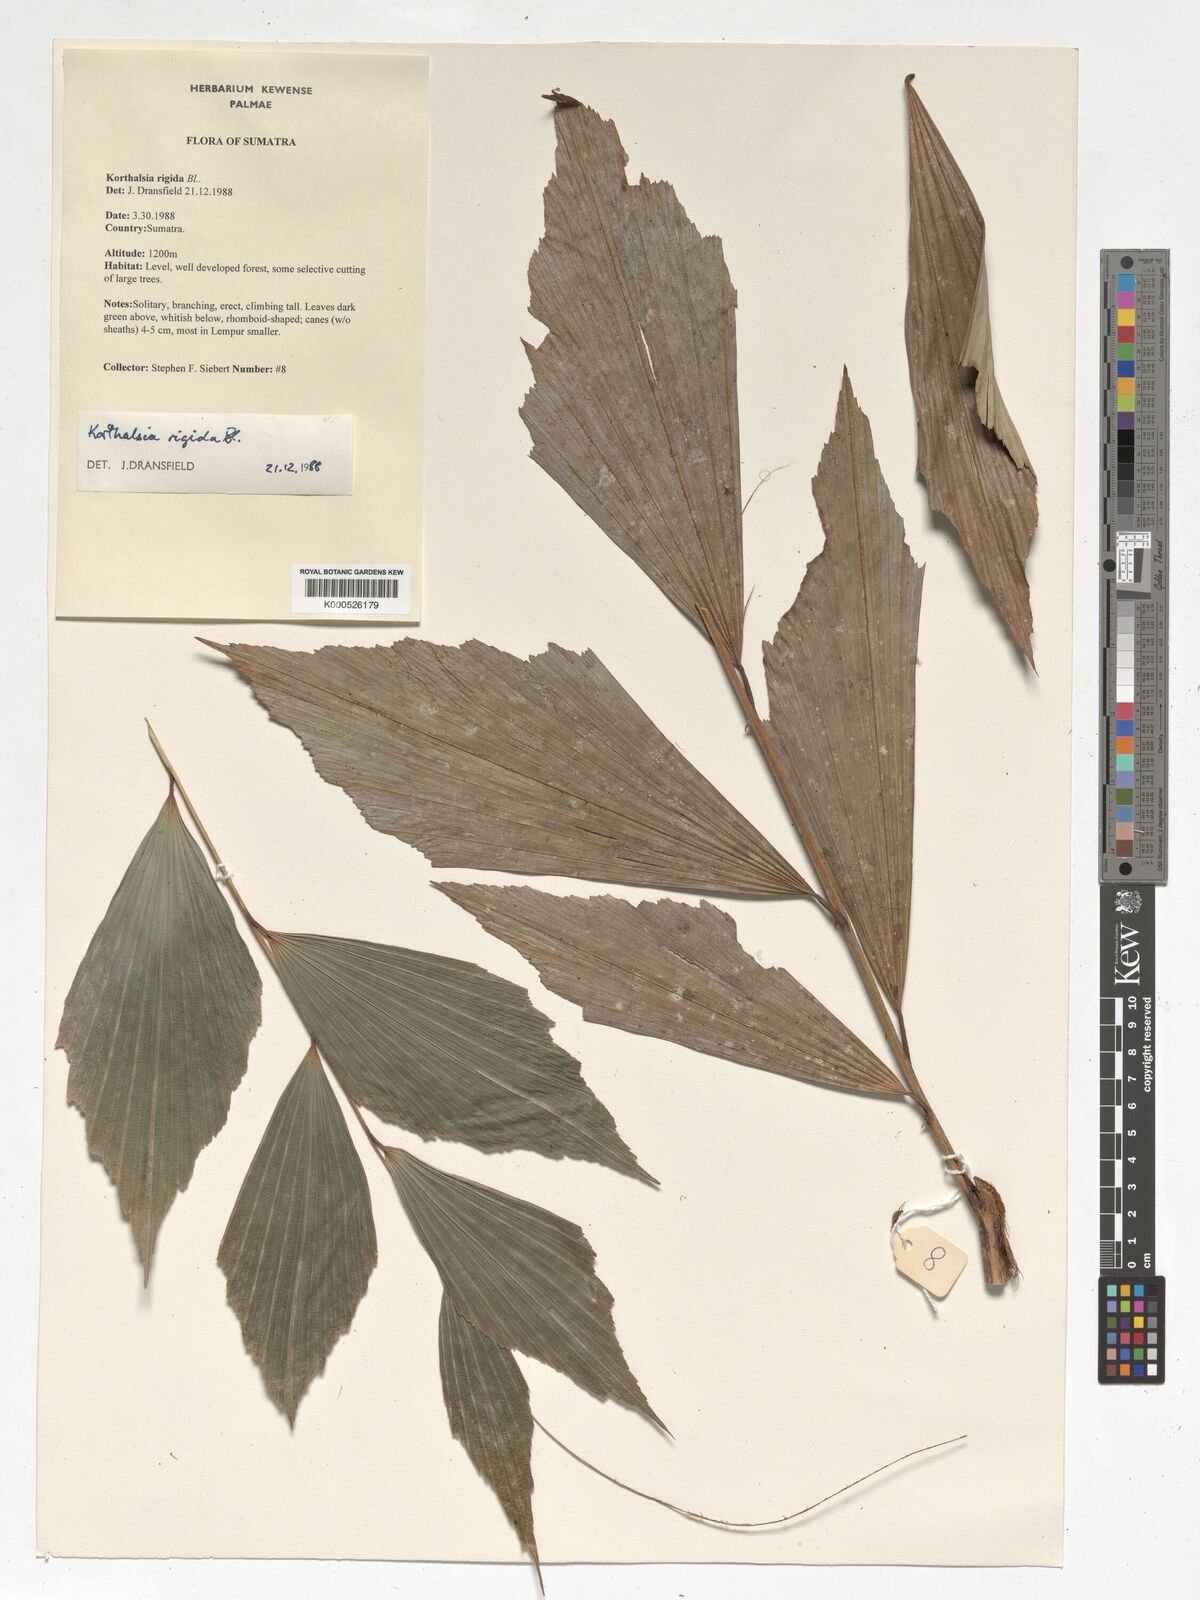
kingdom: Plantae
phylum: Tracheophyta
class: Liliopsida
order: Arecales
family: Arecaceae
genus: Korthalsia
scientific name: Korthalsia rigida
